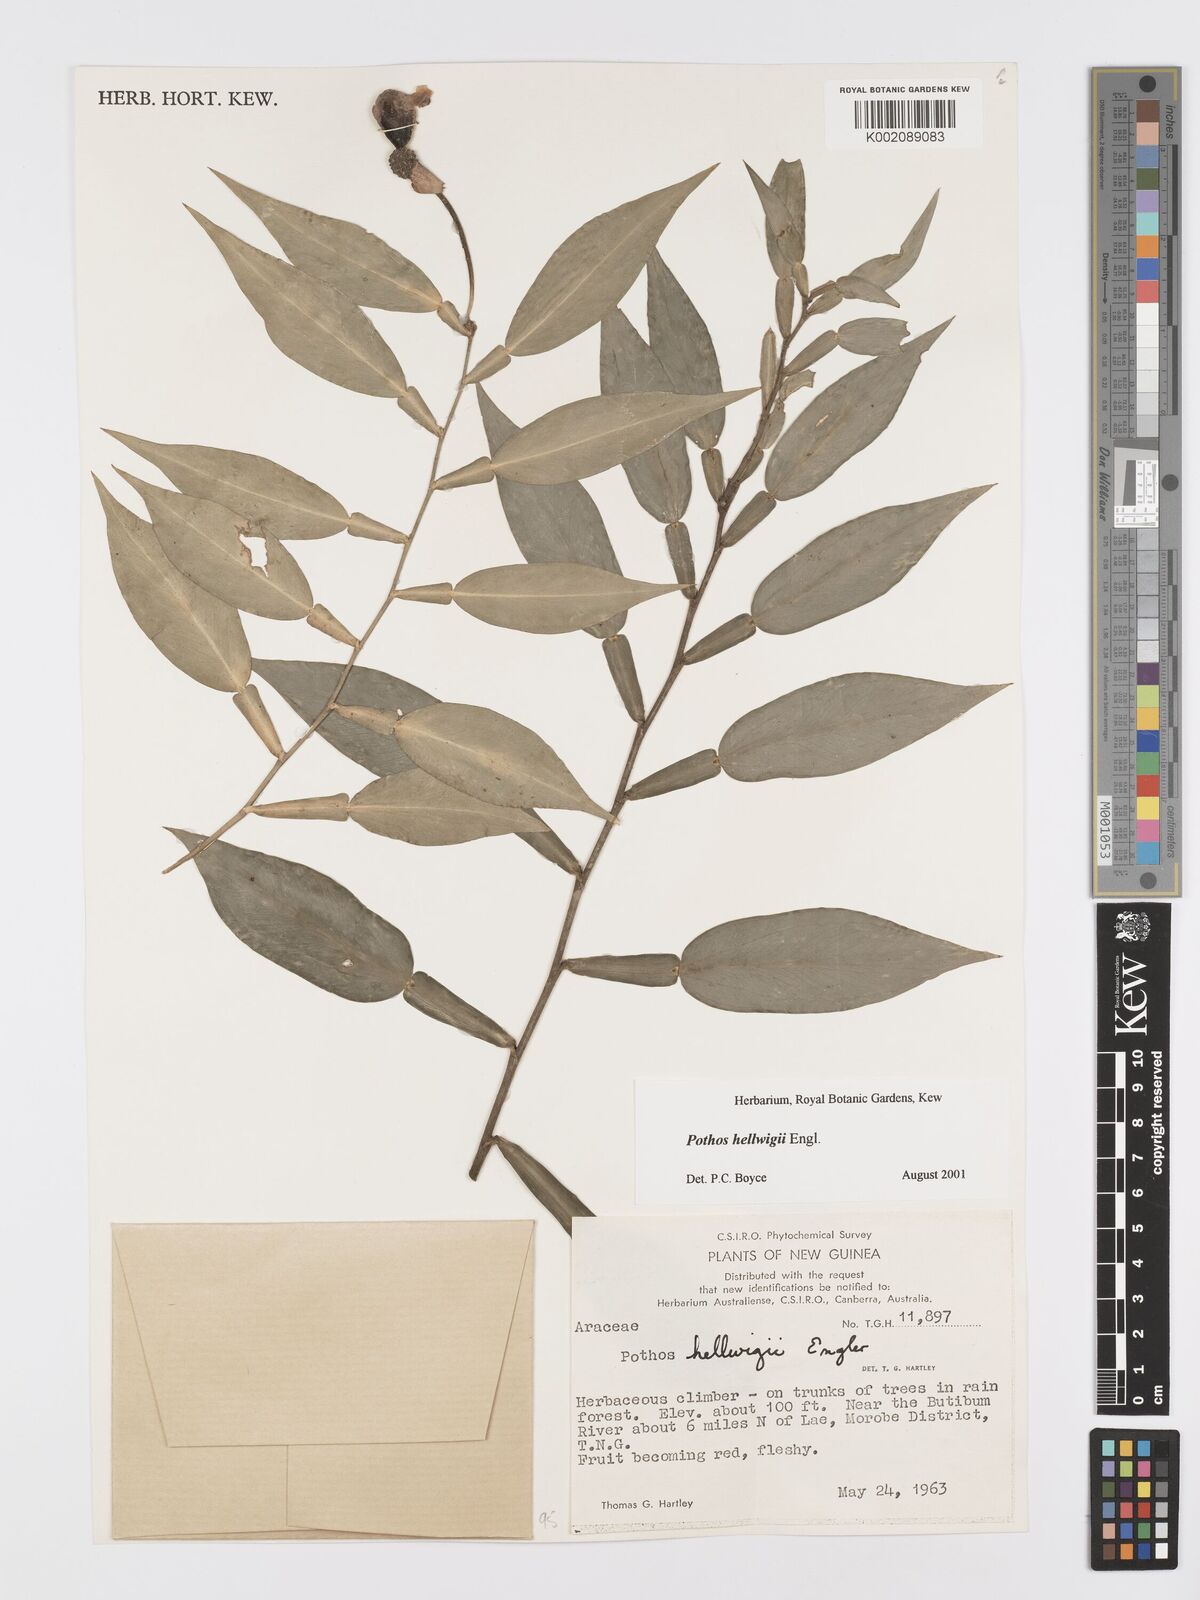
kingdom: Plantae
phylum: Tracheophyta
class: Liliopsida
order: Alismatales
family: Araceae
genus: Pothos
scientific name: Pothos hellwigii
